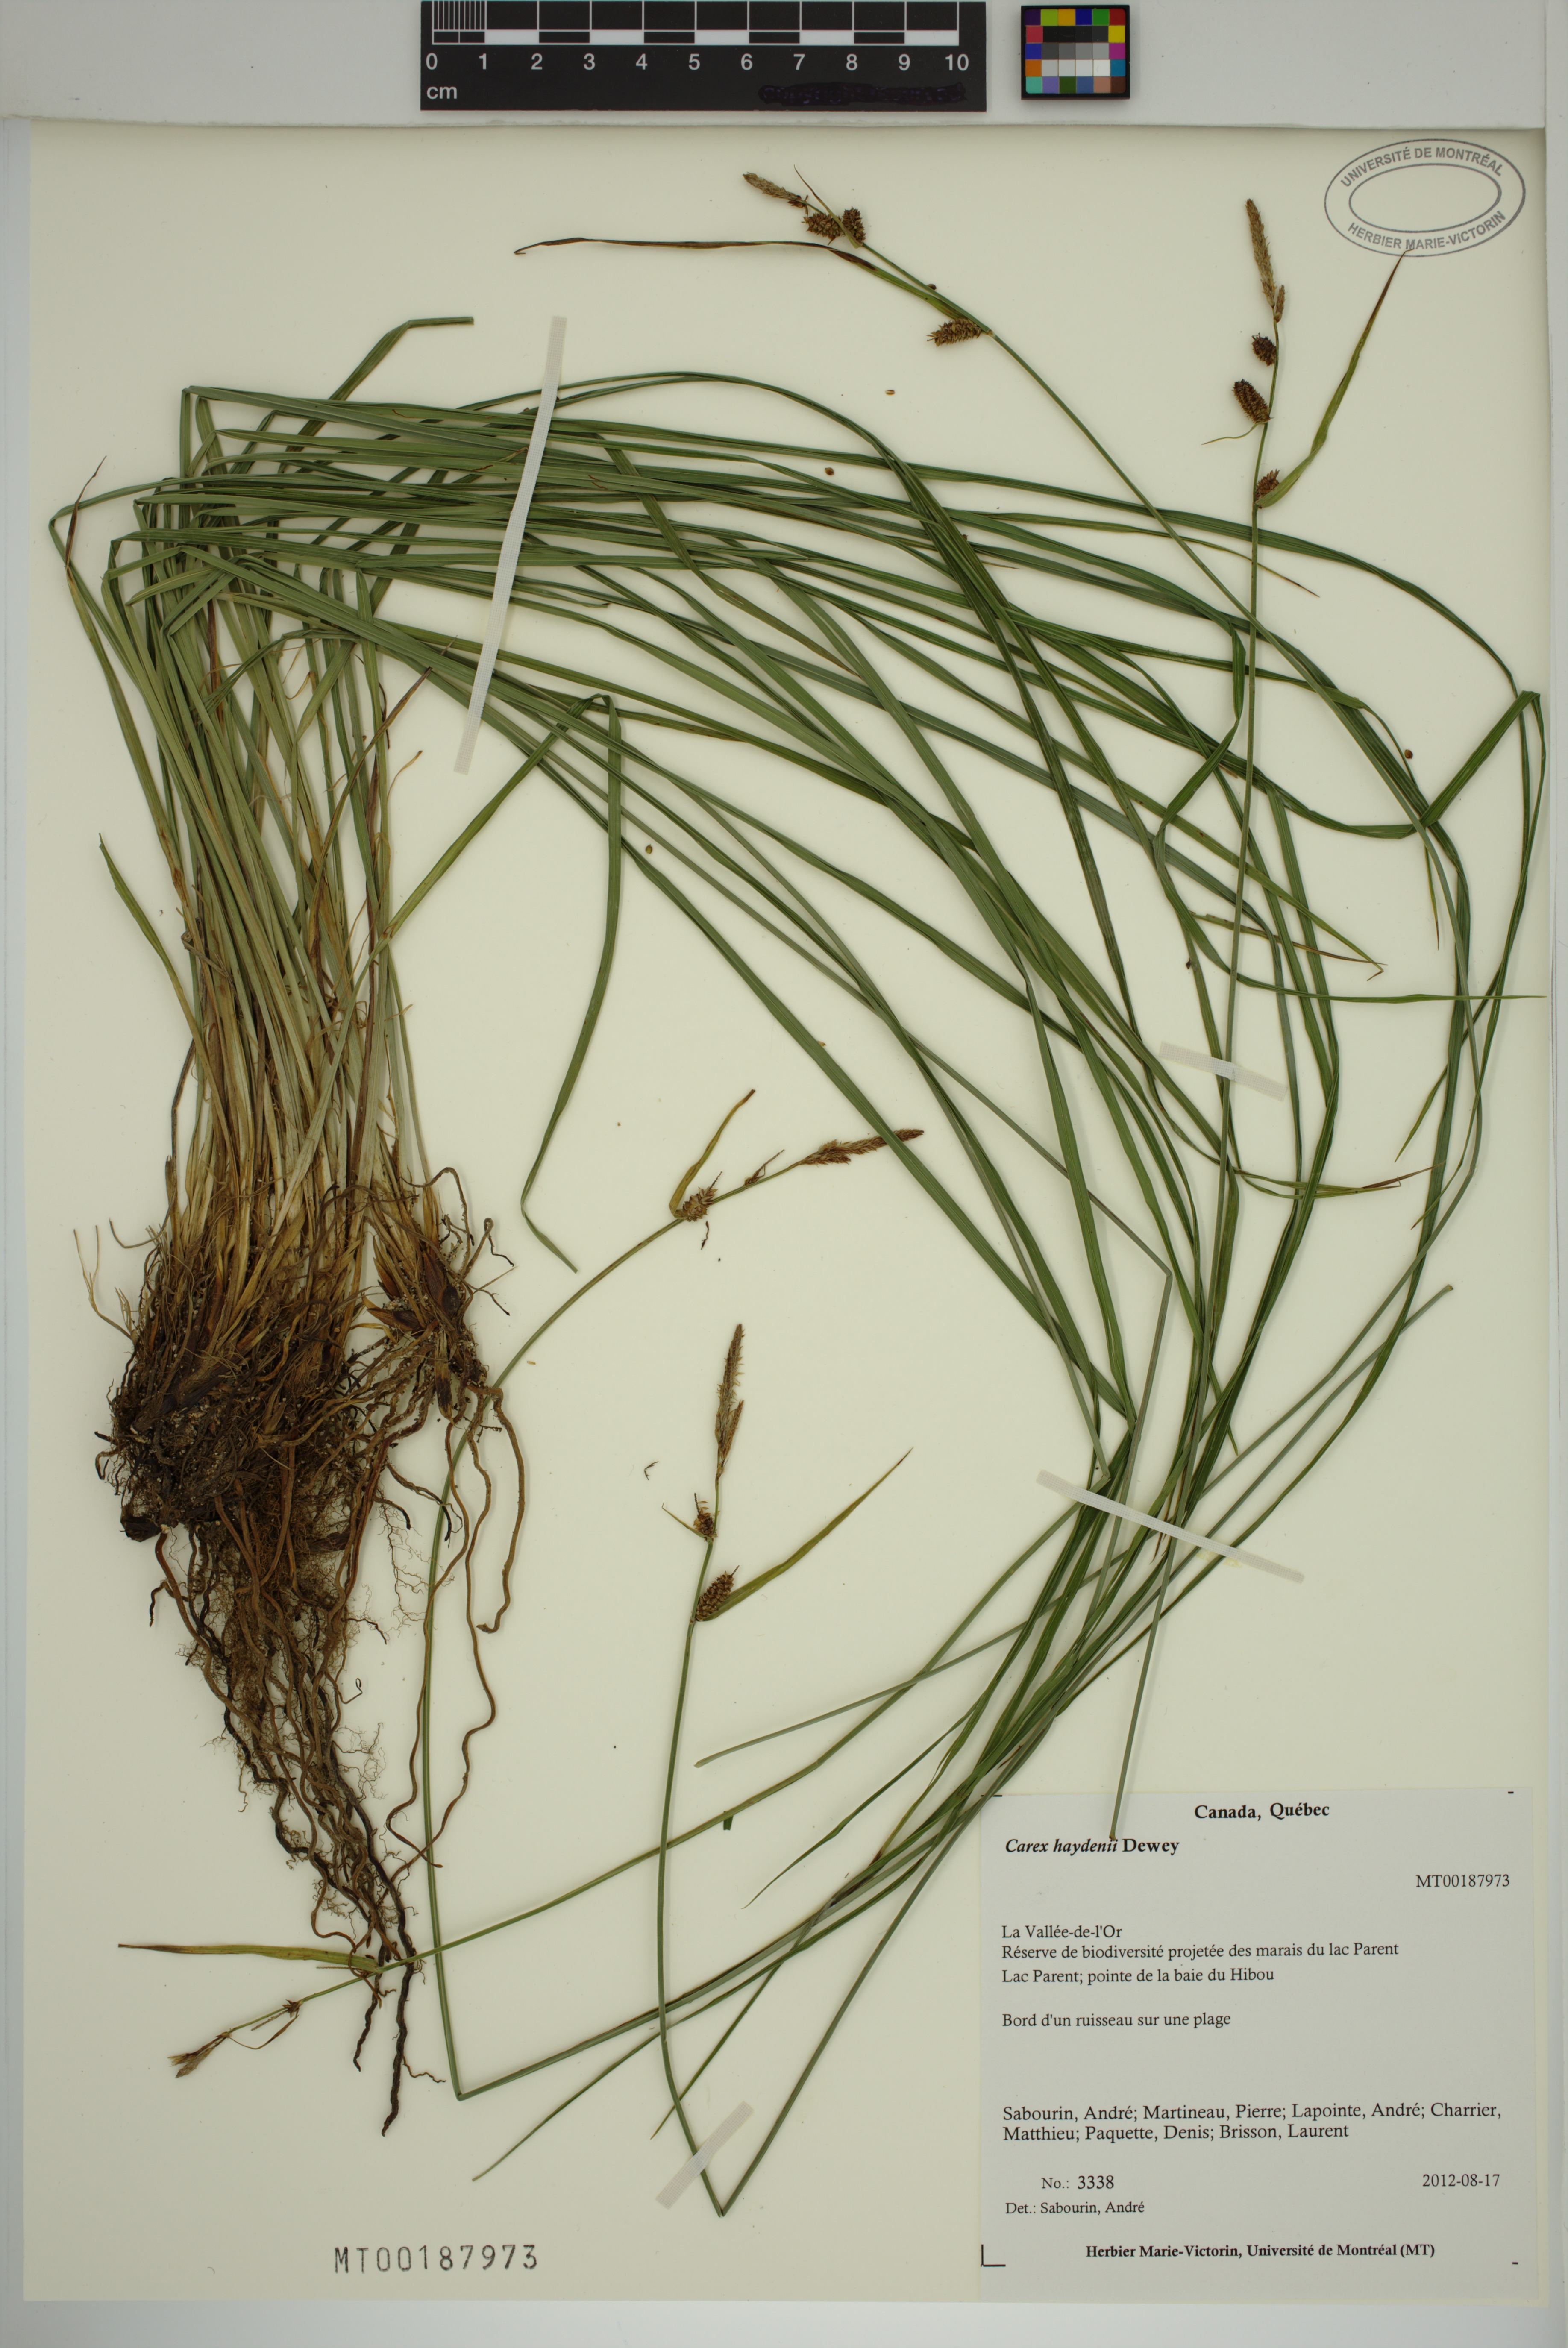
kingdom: Plantae
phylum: Tracheophyta
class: Liliopsida
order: Poales
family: Cyperaceae
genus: Carex
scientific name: Carex haydenii
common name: Hayden's sedge
